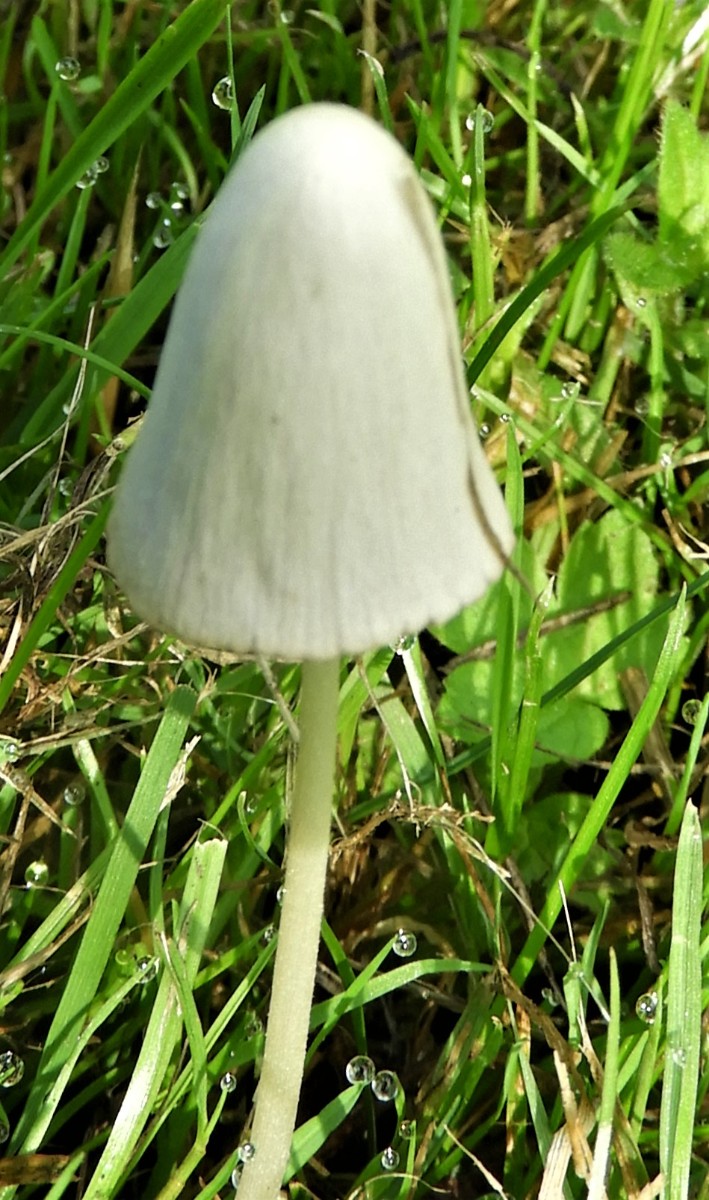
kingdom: Fungi
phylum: Basidiomycota
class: Agaricomycetes
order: Agaricales
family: Bolbitiaceae
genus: Conocybe
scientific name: Conocybe apala
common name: mælkehvid keglehat
